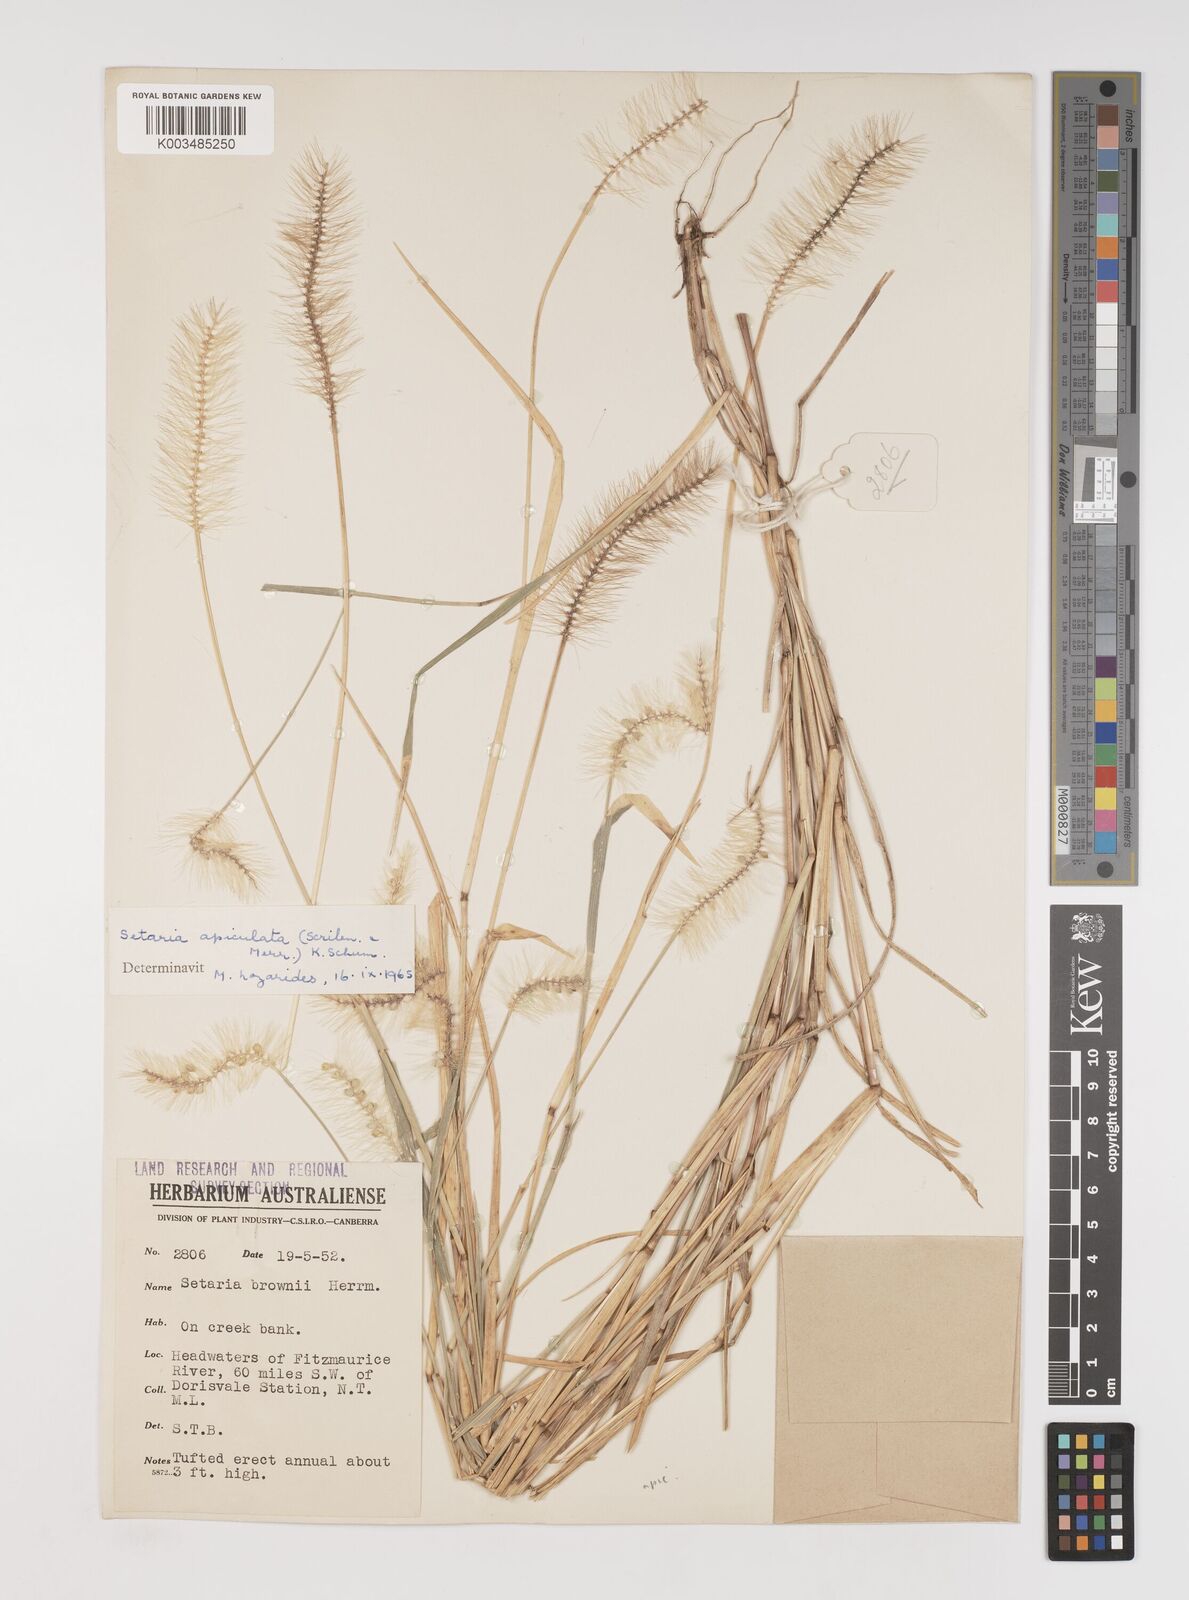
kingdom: Plantae
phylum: Tracheophyta
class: Liliopsida
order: Poales
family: Poaceae
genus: Setaria
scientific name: Setaria apiculata
